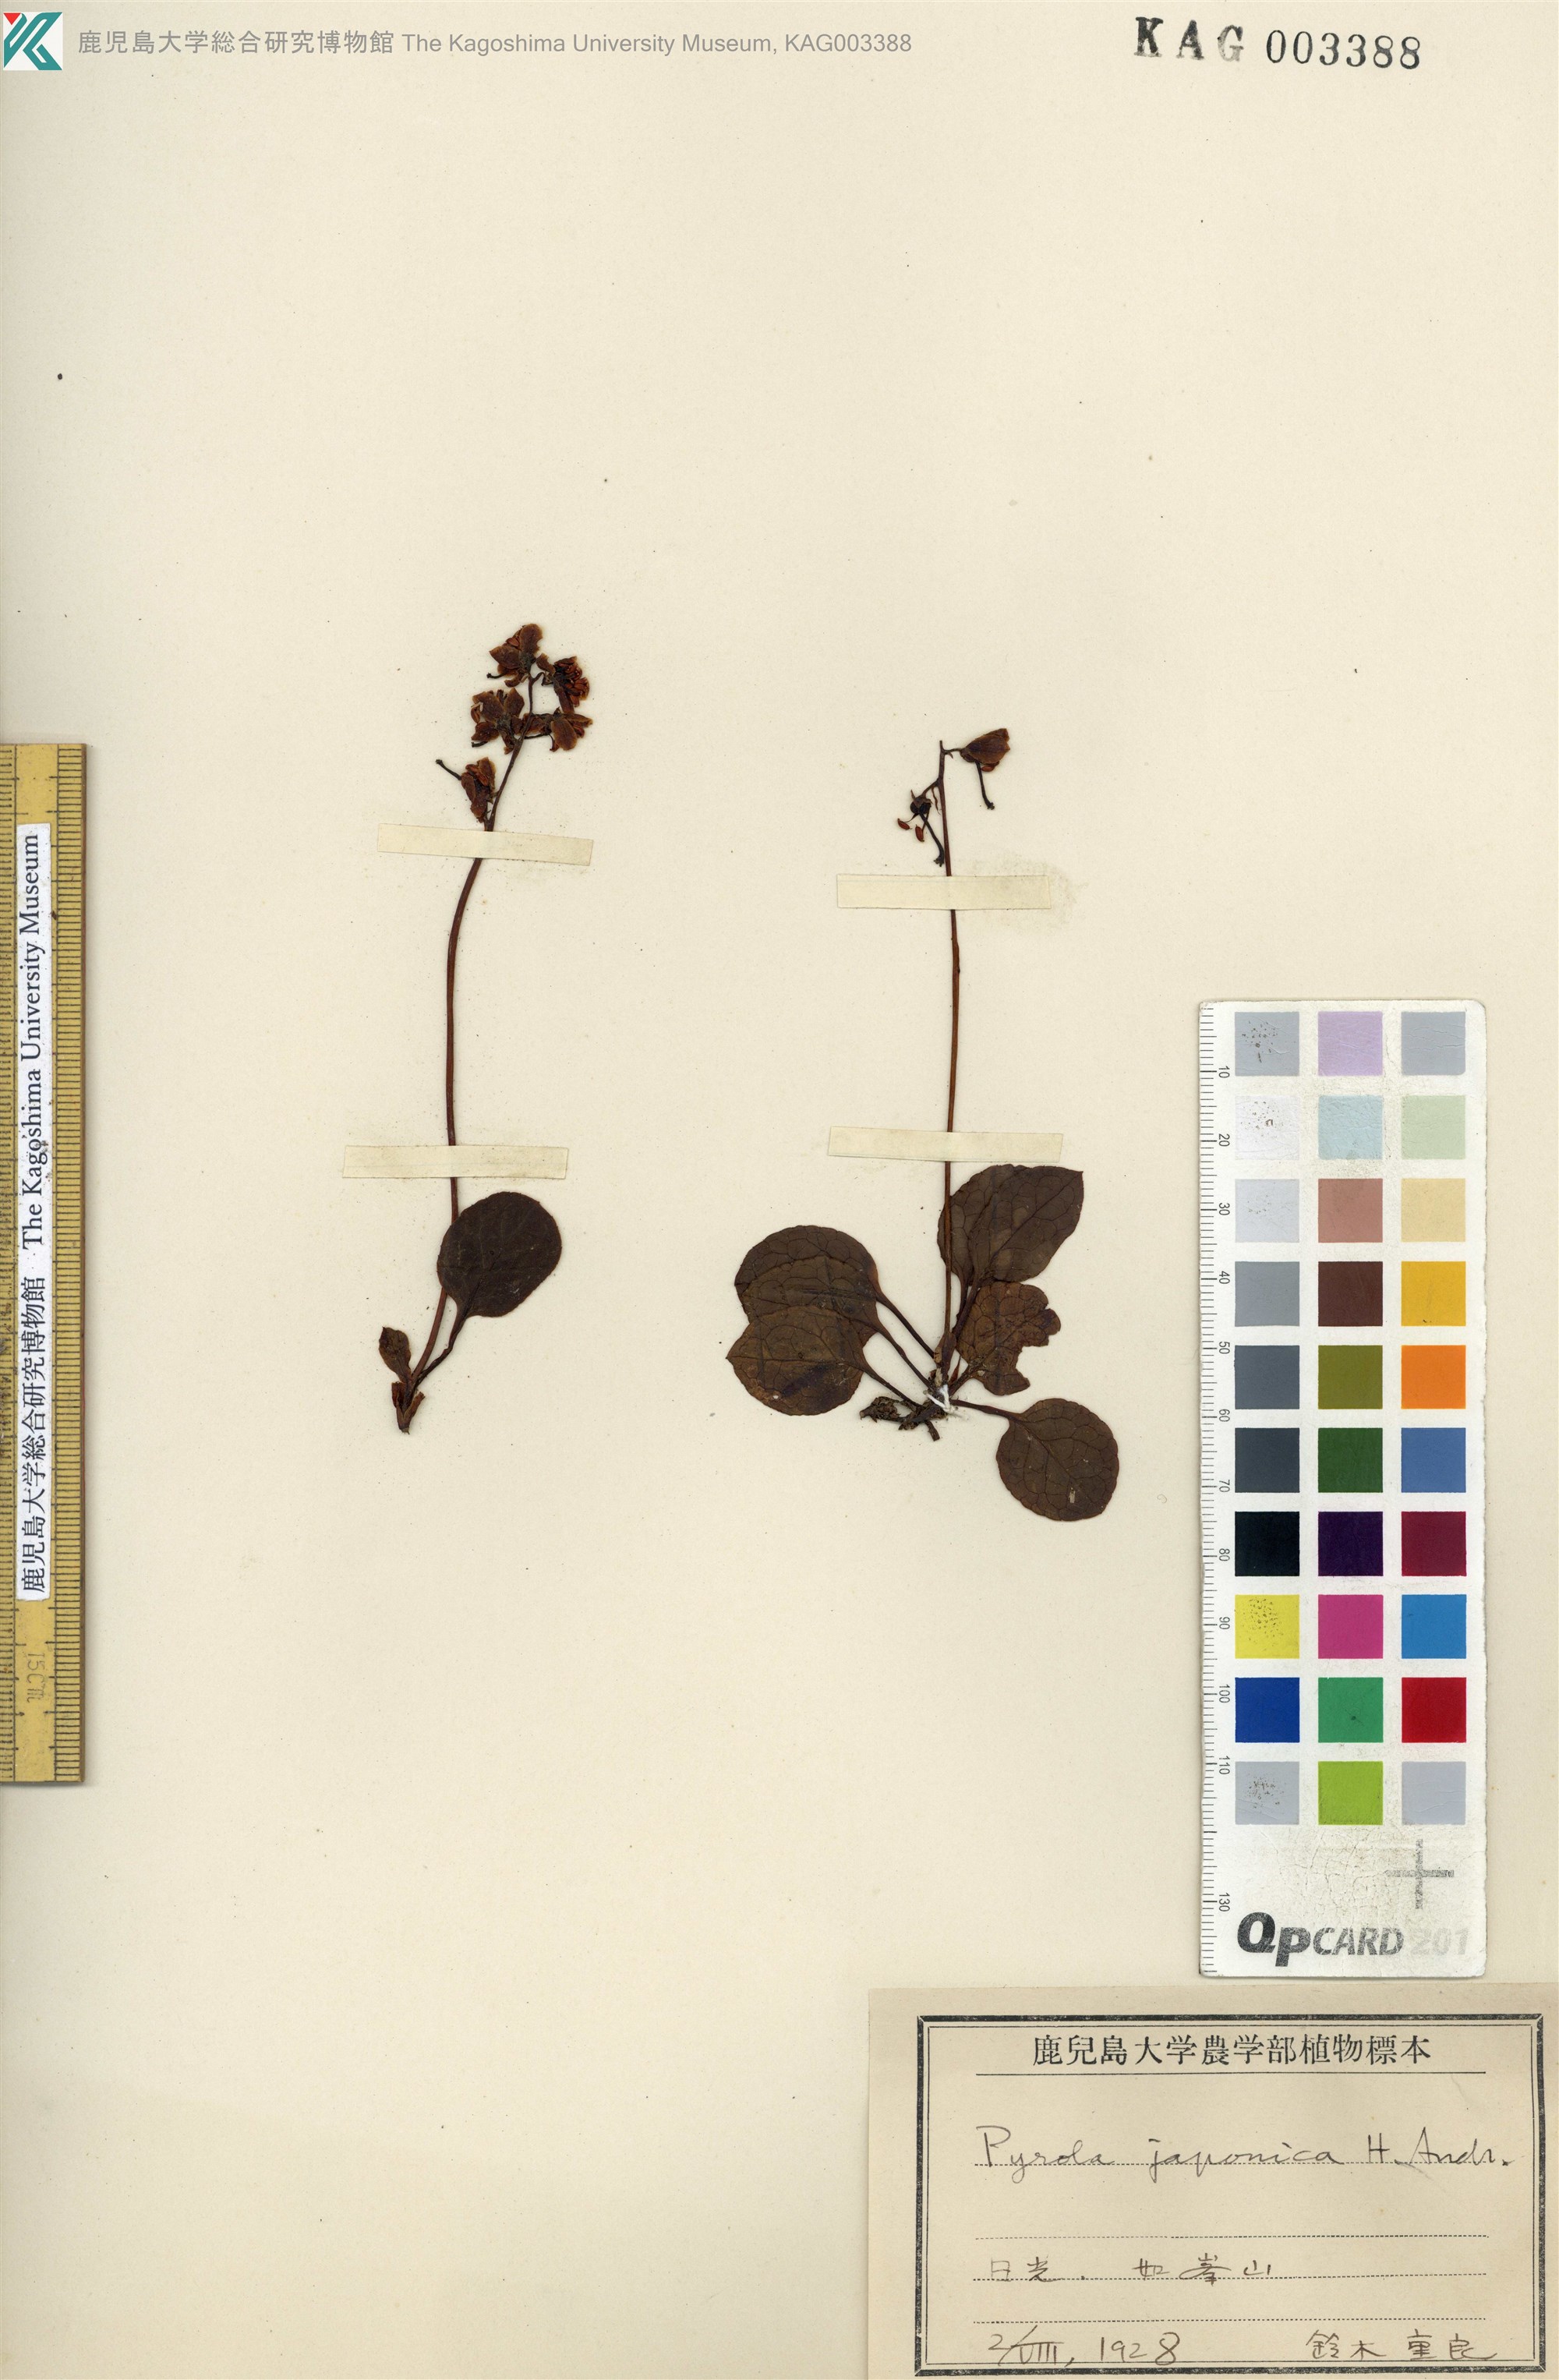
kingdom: Plantae
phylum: Tracheophyta
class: Magnoliopsida
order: Ericales
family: Ericaceae
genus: Pyrola
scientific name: Pyrola alpina
